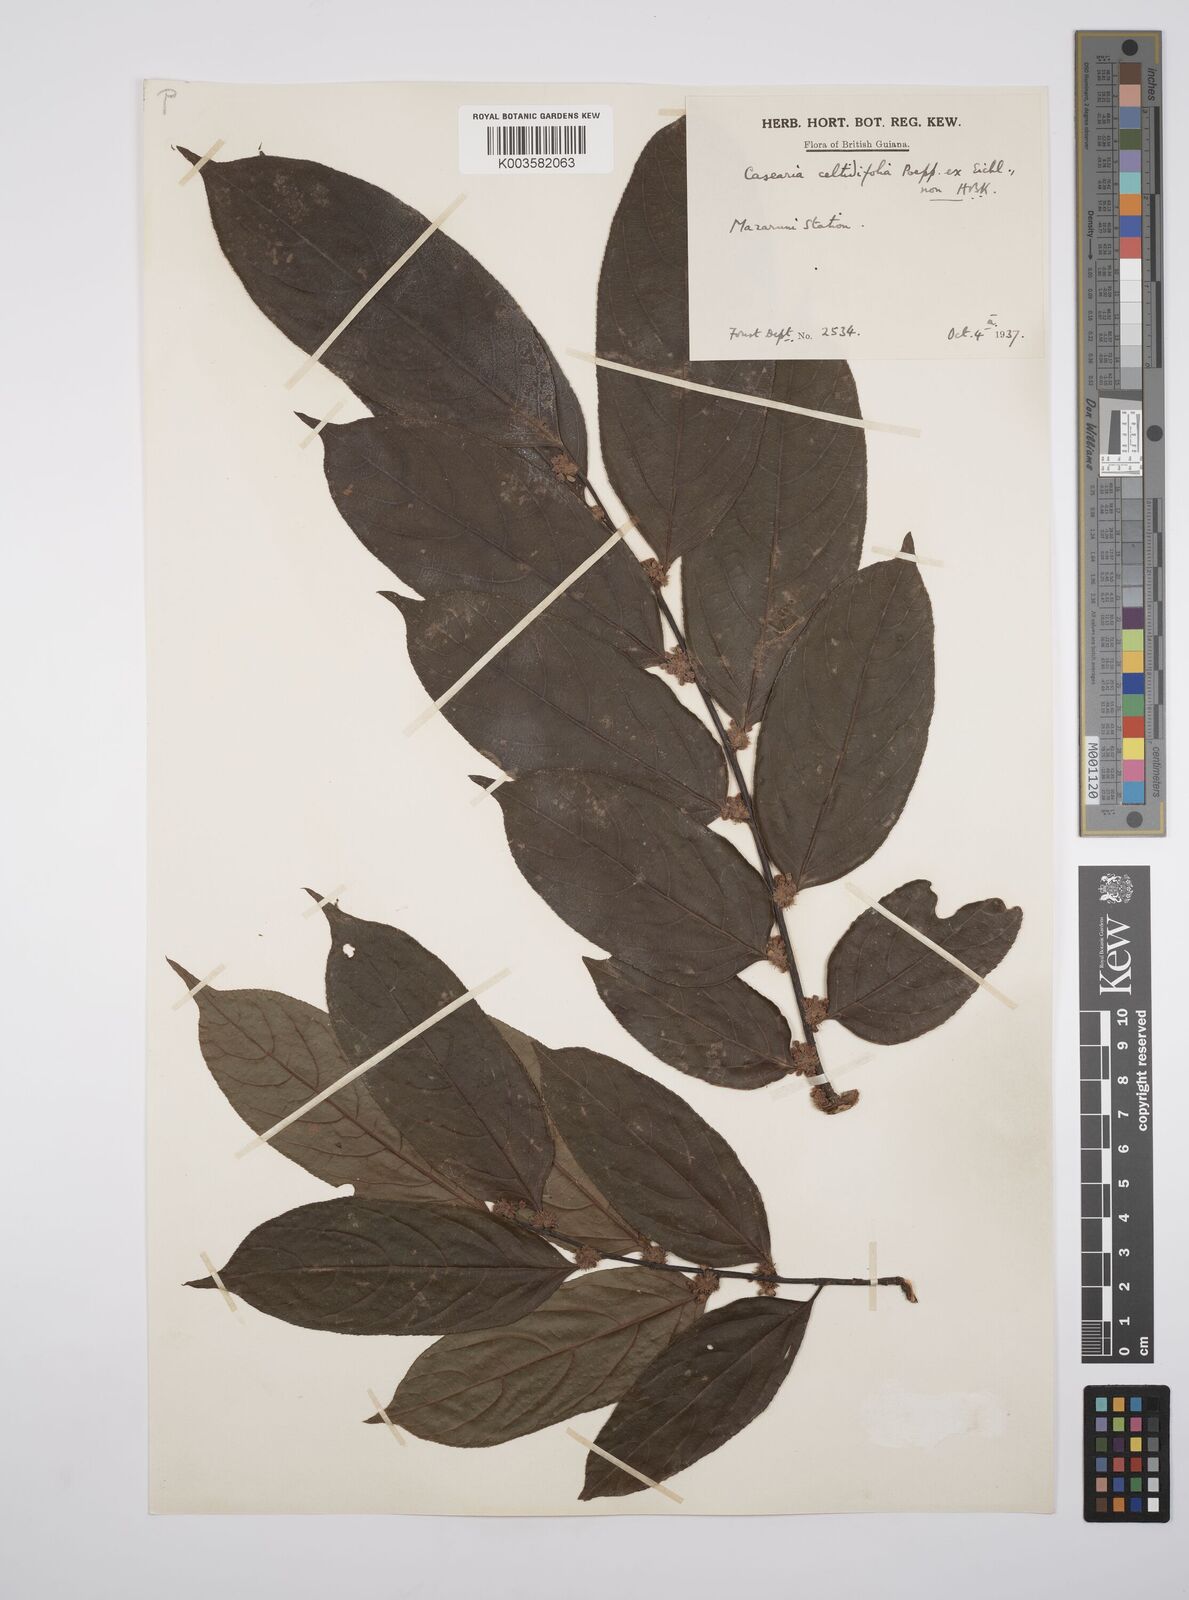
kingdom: Plantae
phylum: Tracheophyta
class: Magnoliopsida
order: Malpighiales
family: Salicaceae
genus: Casearia
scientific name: Casearia ulmifolia
